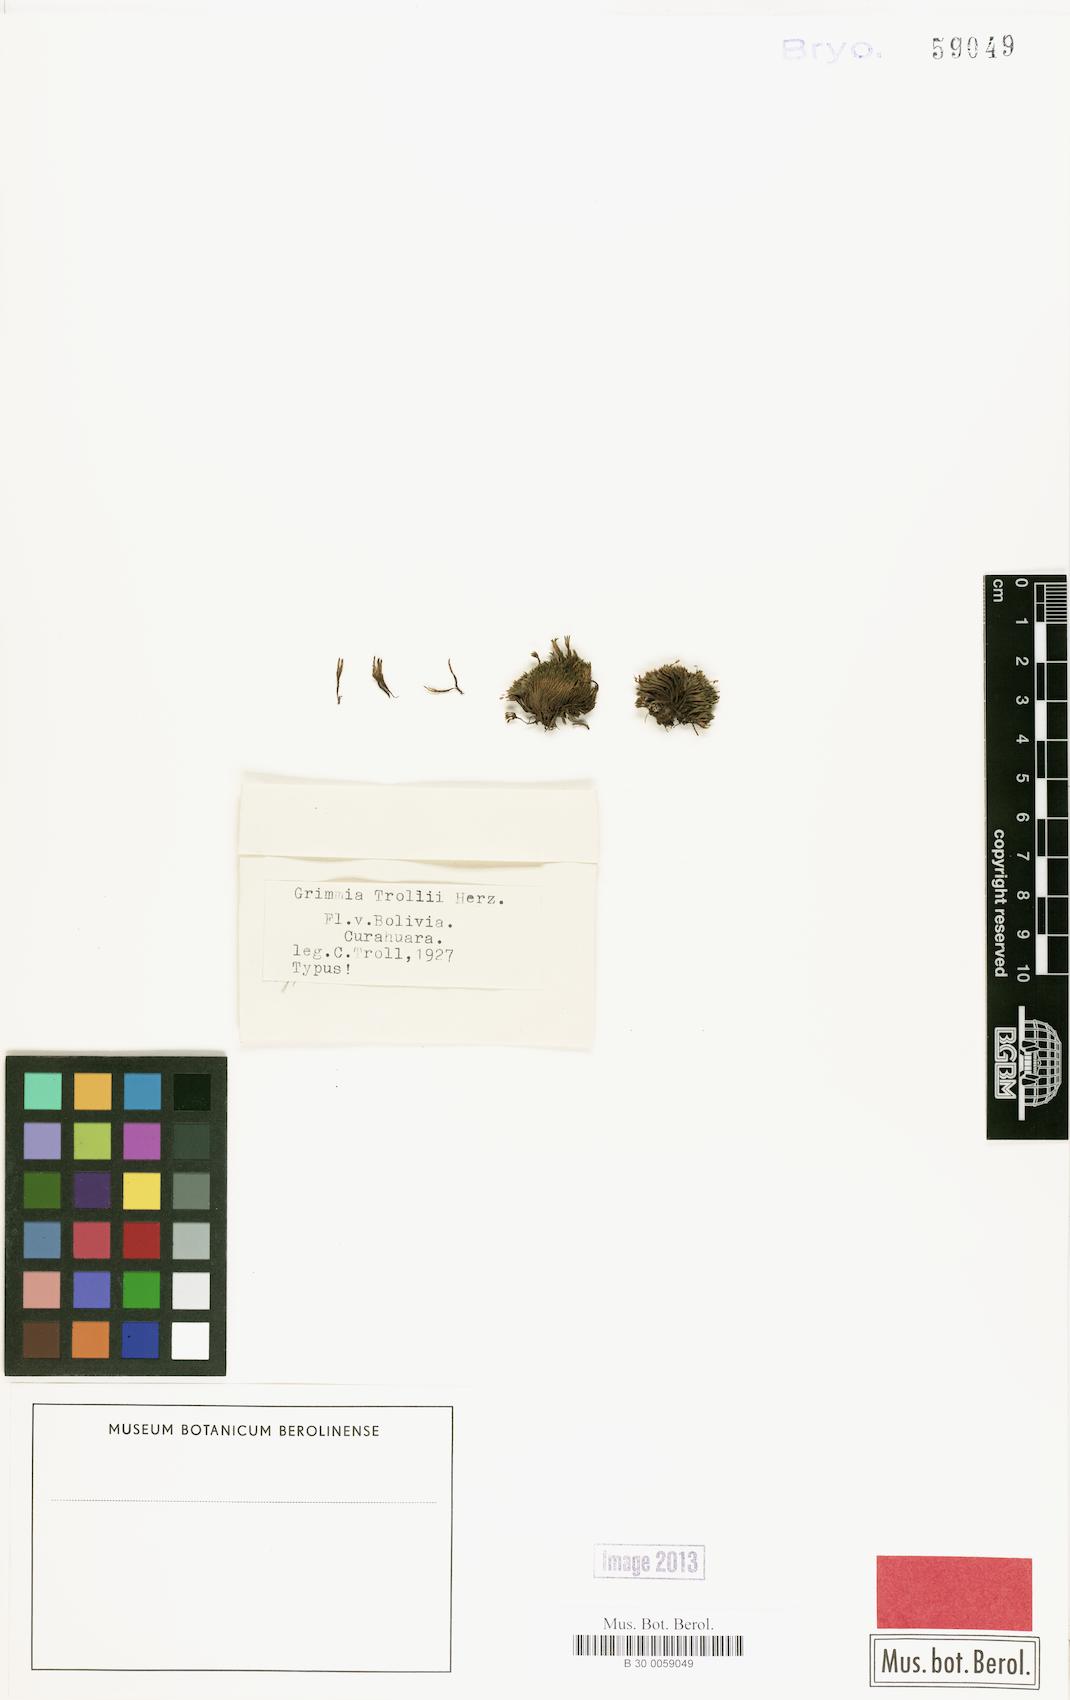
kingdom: Plantae
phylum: Bryophyta
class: Bryopsida
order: Grimmiales
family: Grimmiaceae
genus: Grimmia
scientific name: Grimmia herzogii
